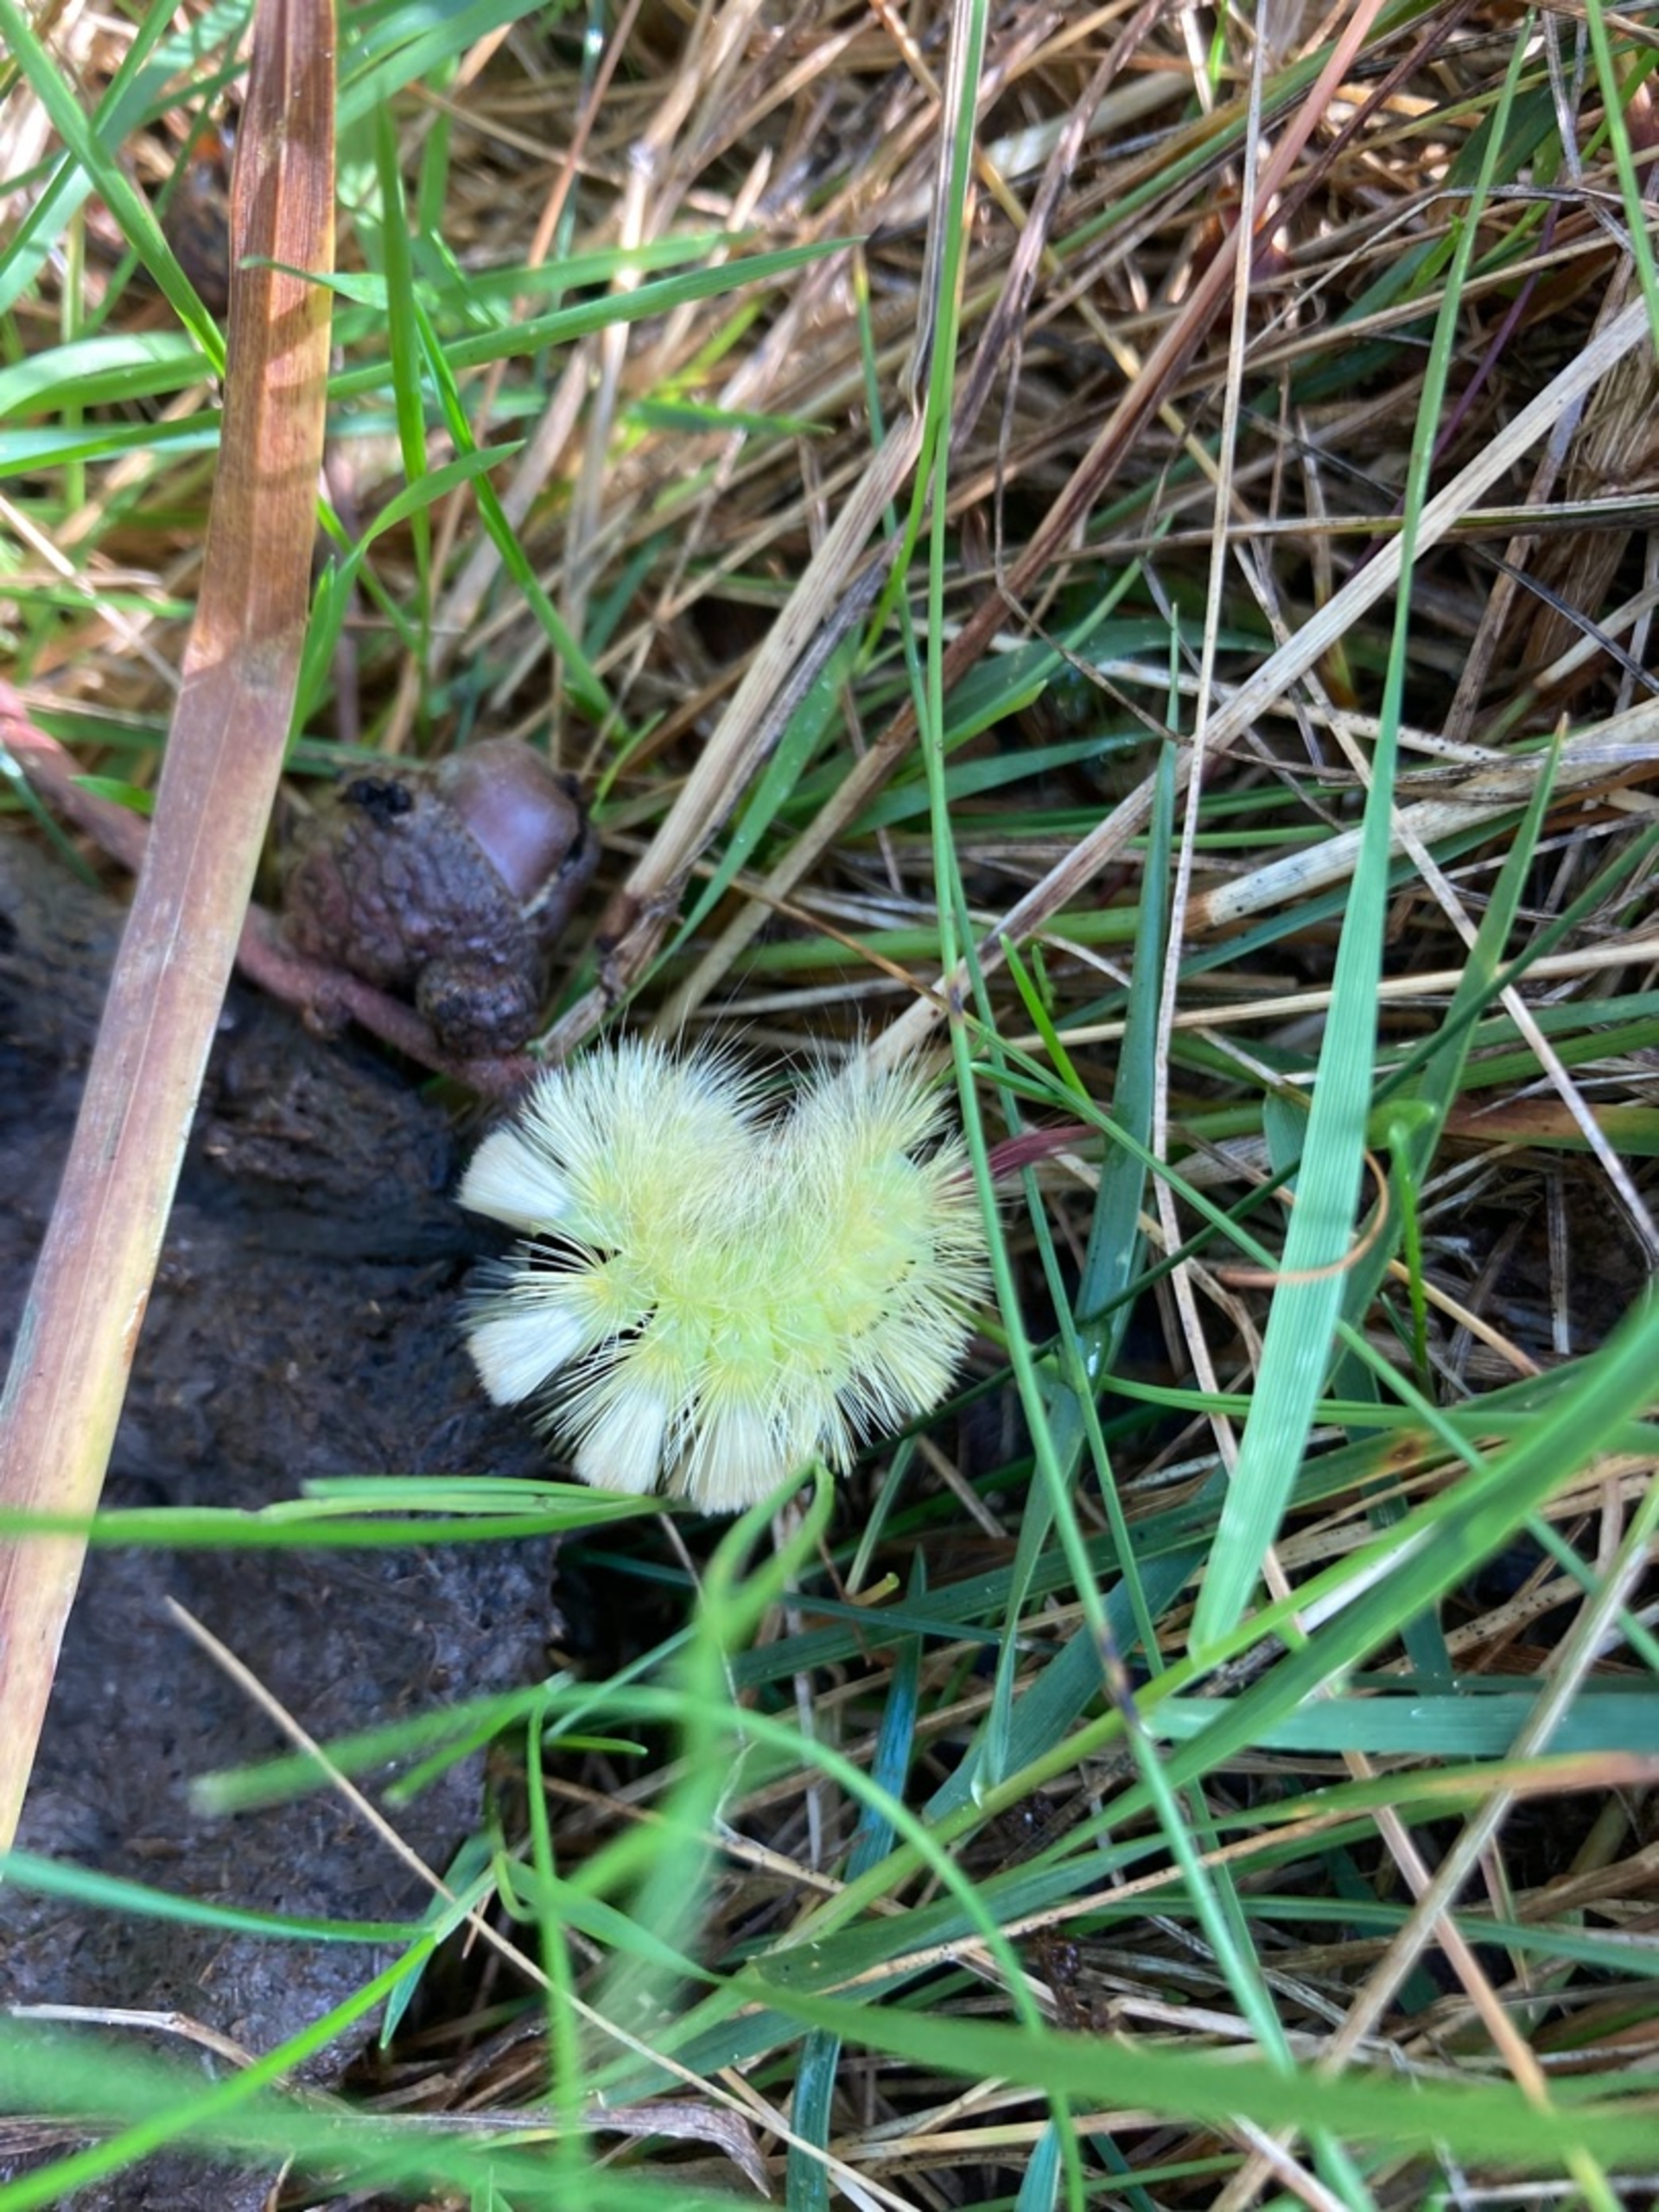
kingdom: Animalia
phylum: Arthropoda
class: Insecta
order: Lepidoptera
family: Erebidae
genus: Calliteara
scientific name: Calliteara pudibunda
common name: Bøgenonne
